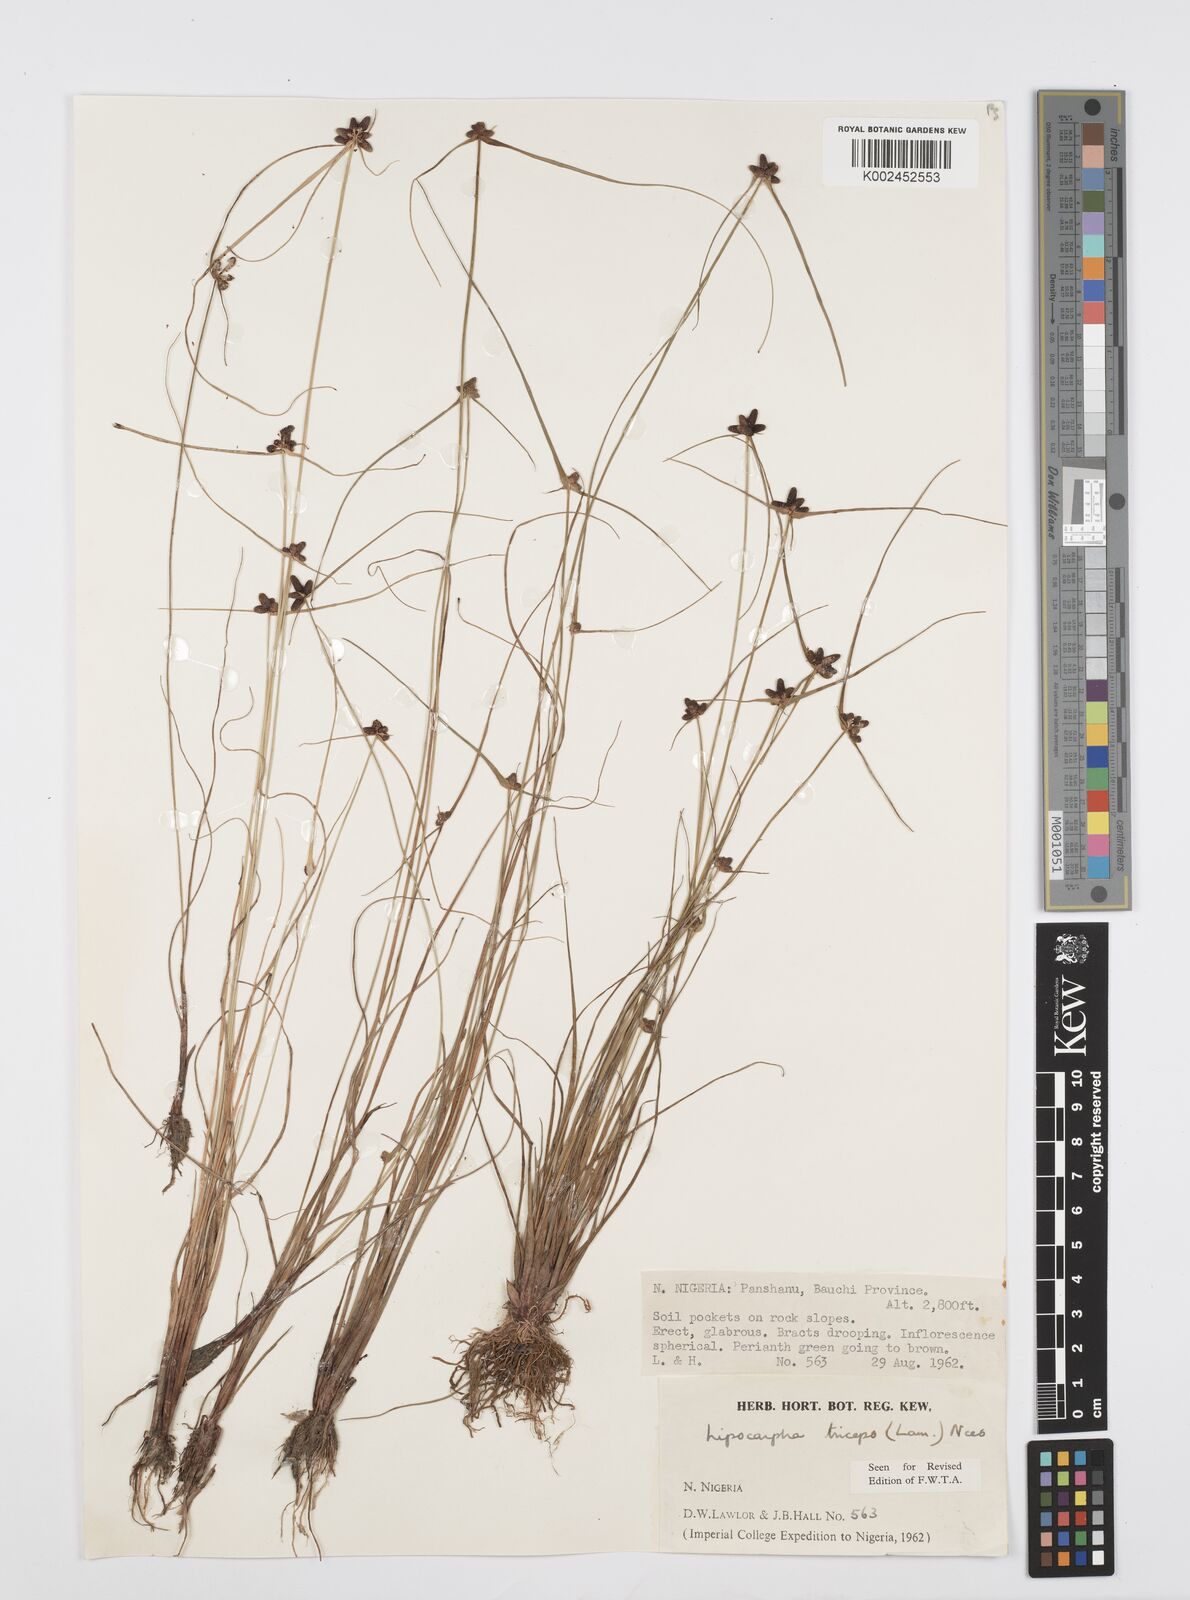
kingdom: Plantae
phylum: Tracheophyta
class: Liliopsida
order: Poales
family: Cyperaceae
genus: Cyperus
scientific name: Cyperus filiformis
